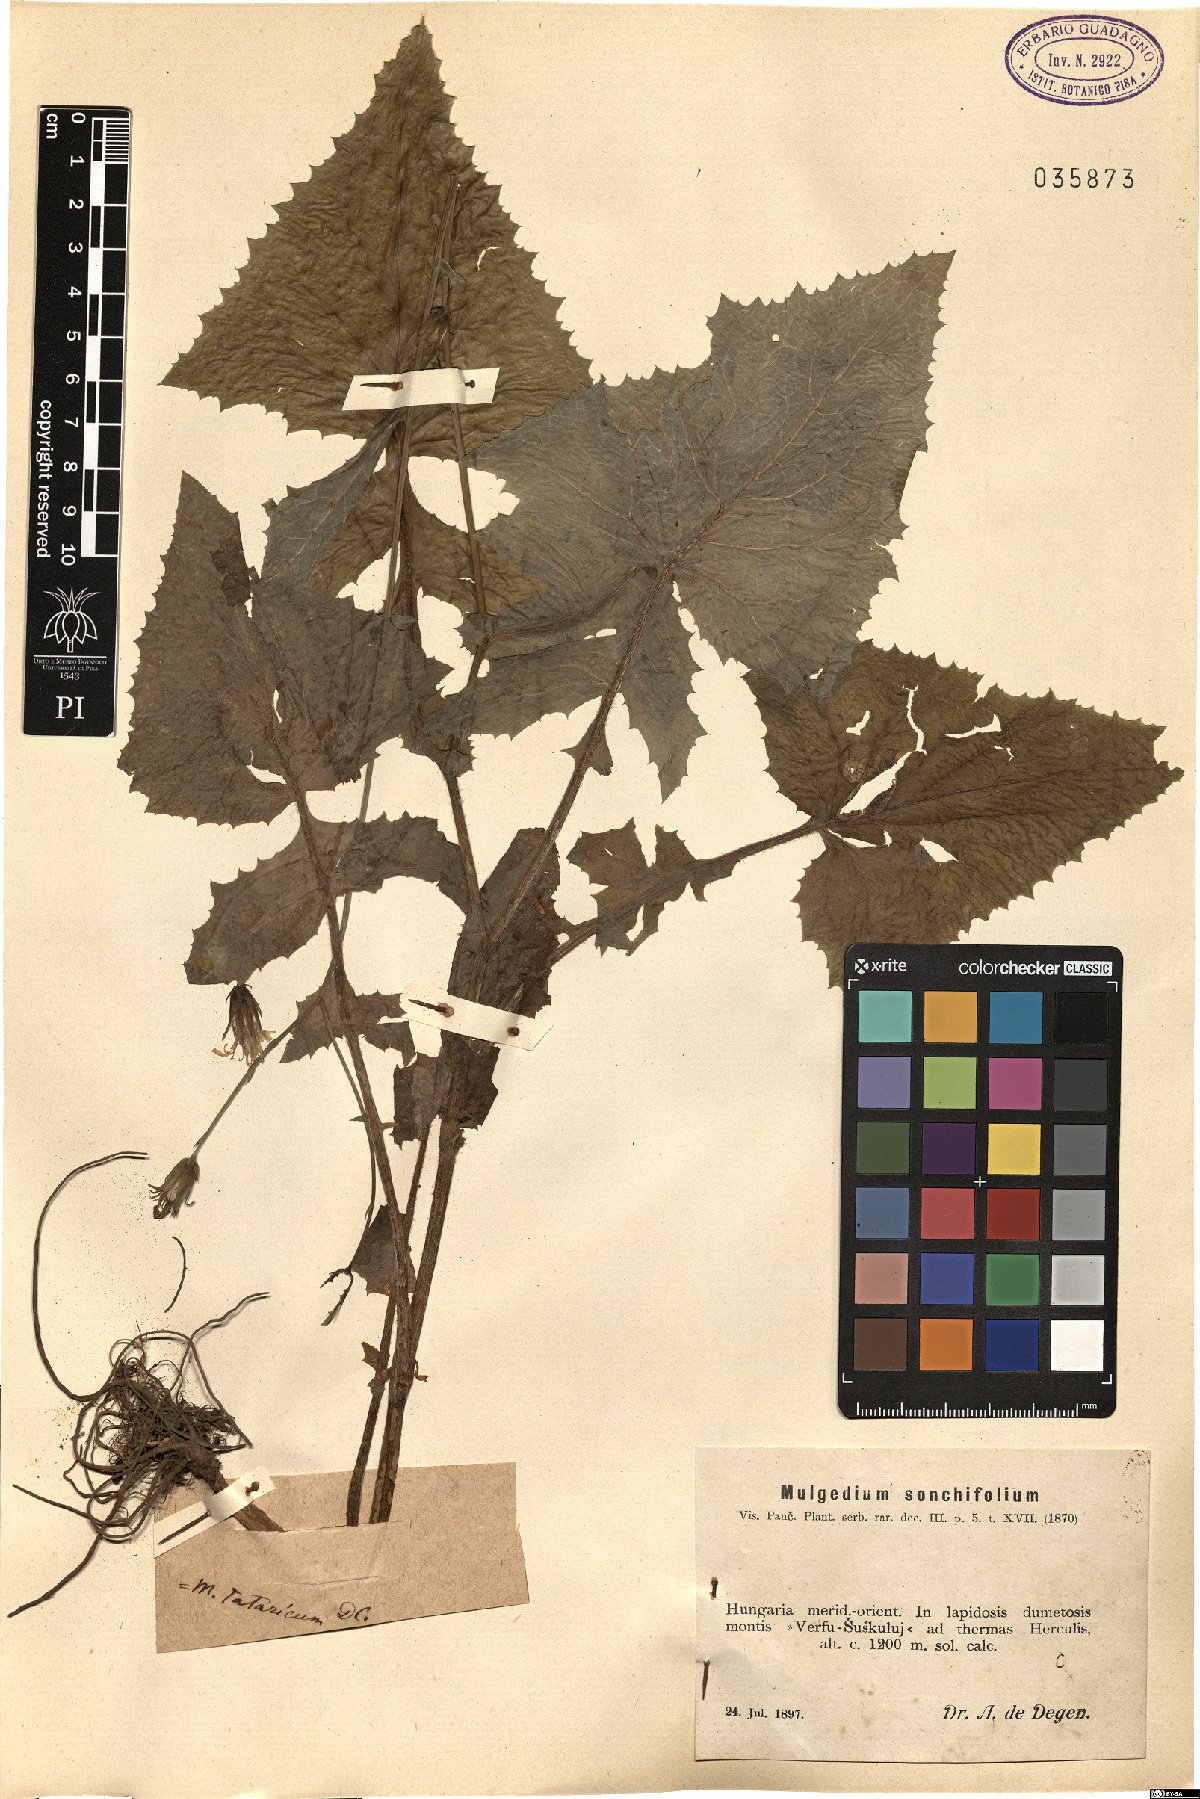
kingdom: Plantae
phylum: Tracheophyta
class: Magnoliopsida
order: Asterales
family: Asteraceae
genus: Lactuca
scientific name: Lactuca sonchifolia
